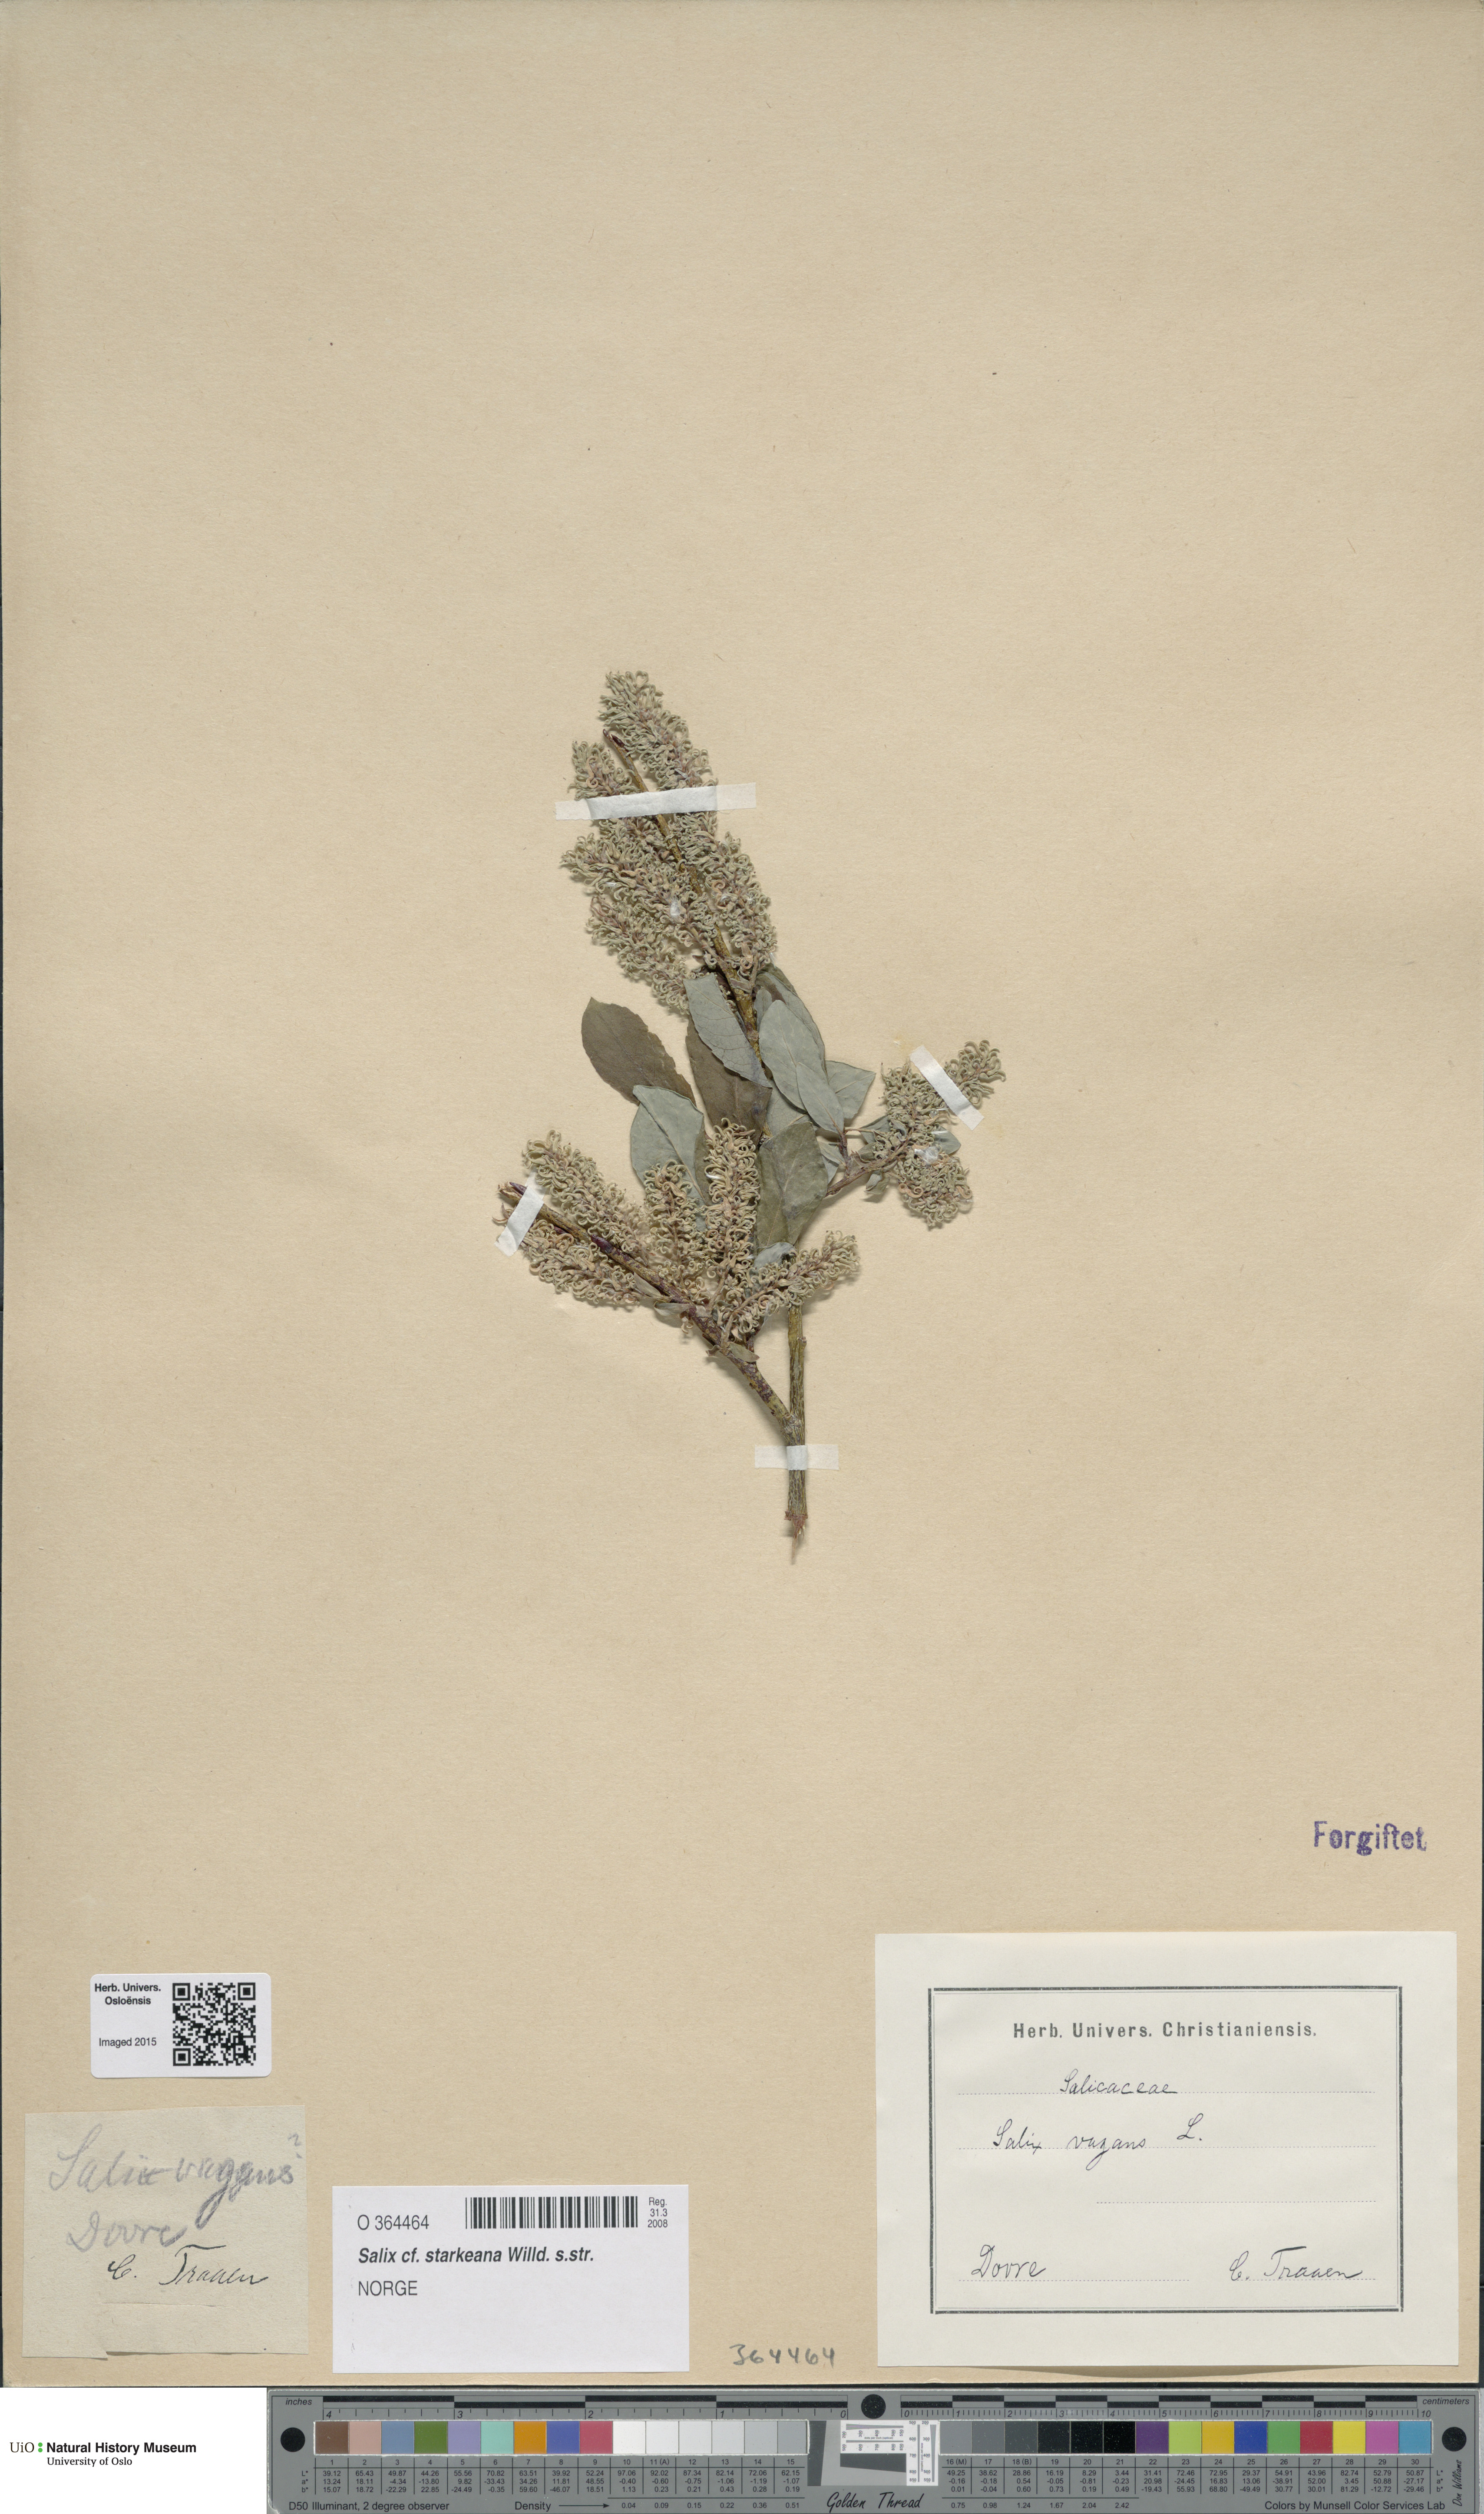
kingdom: Plantae
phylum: Tracheophyta
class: Magnoliopsida
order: Malpighiales
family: Salicaceae
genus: Salix
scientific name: Salix starkeana
